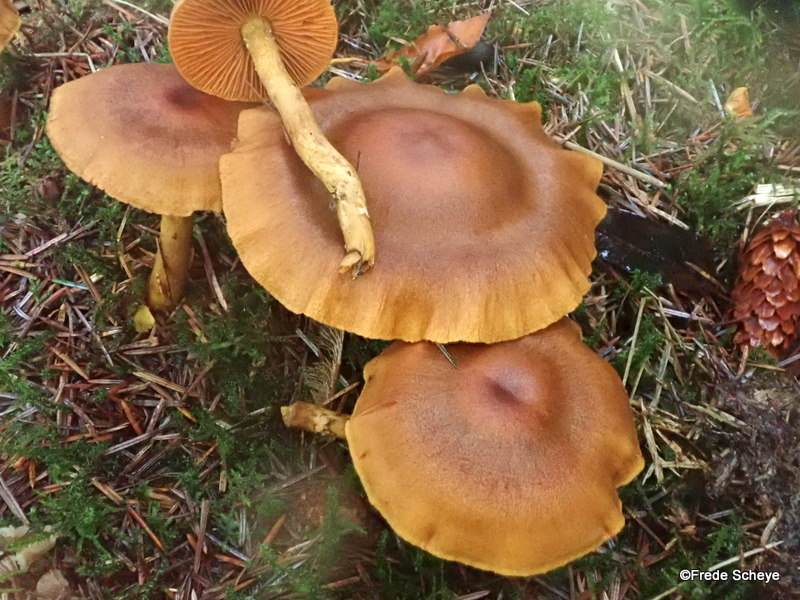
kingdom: Fungi
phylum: Basidiomycota
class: Agaricomycetes
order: Agaricales
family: Cortinariaceae
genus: Cortinarius
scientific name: Cortinarius malicorius
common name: grønkødet slørhat
